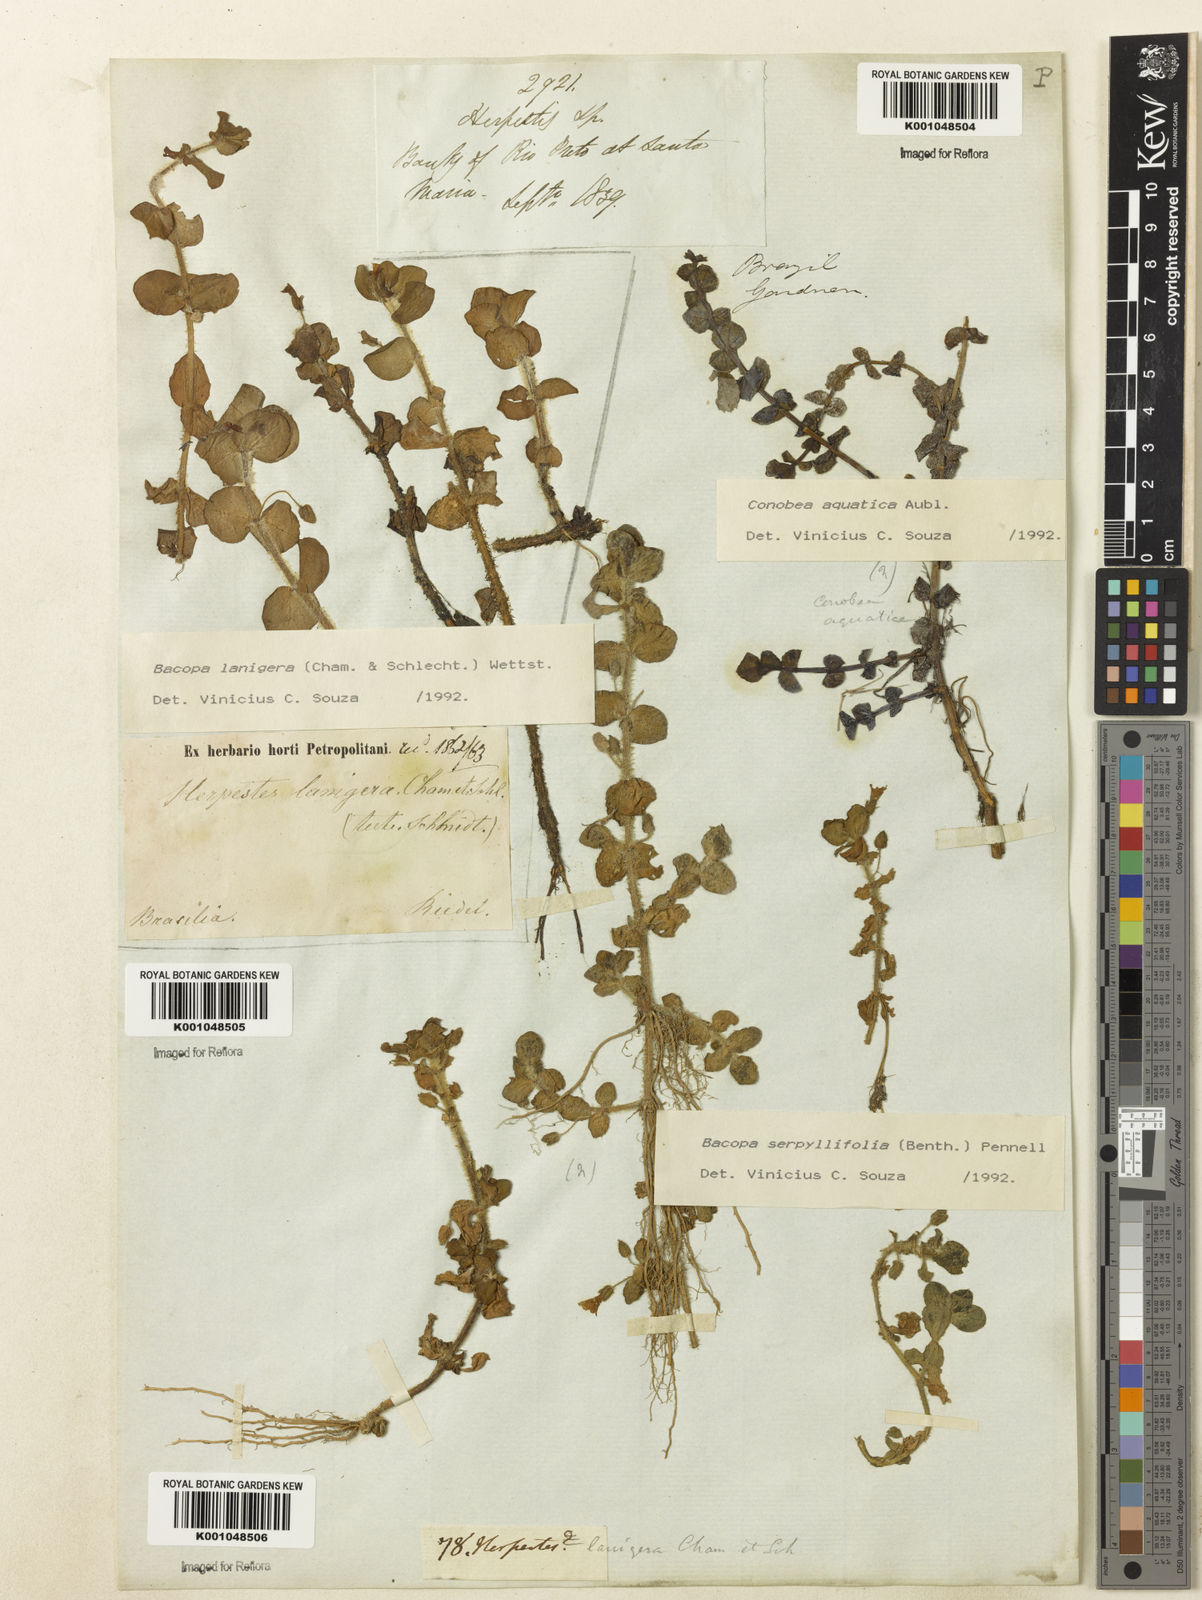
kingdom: Plantae
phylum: Tracheophyta
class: Magnoliopsida
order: Lamiales
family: Plantaginaceae
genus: Bacopa
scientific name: Bacopa lanigera
